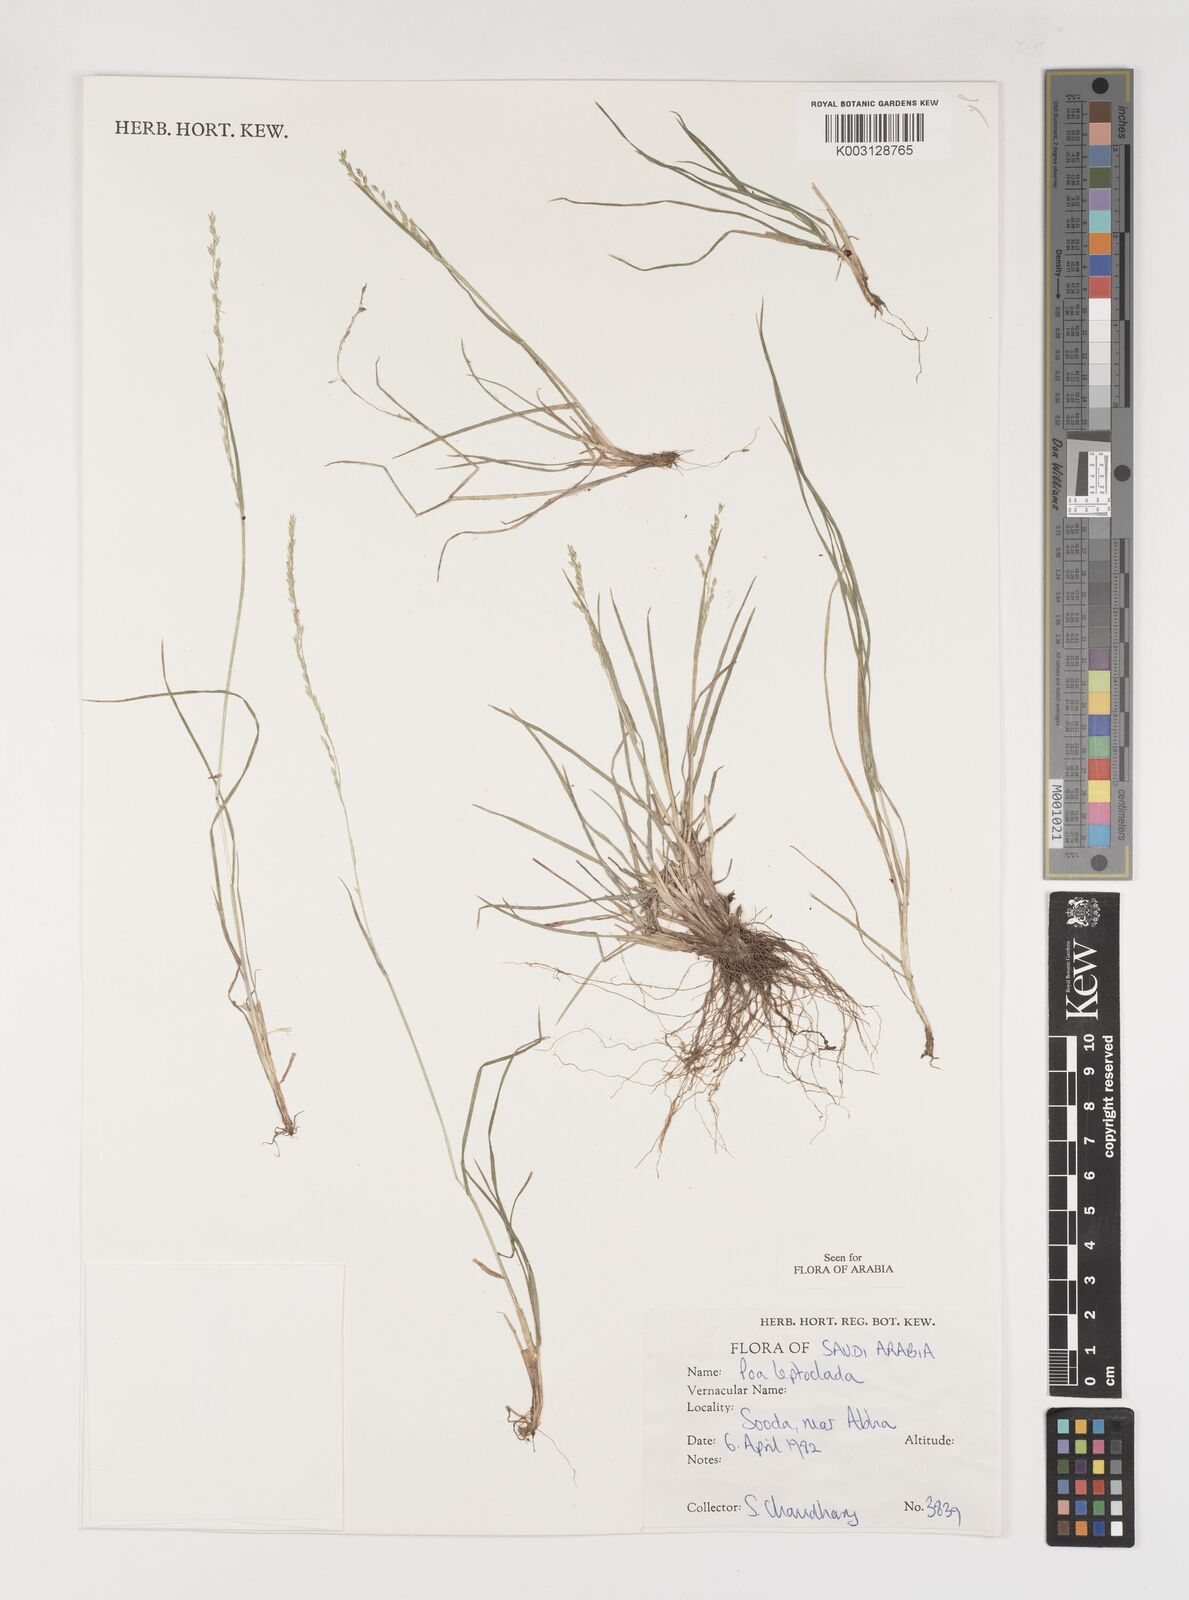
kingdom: Plantae
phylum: Tracheophyta
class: Liliopsida
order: Poales
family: Poaceae
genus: Poa
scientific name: Poa leptoclada
